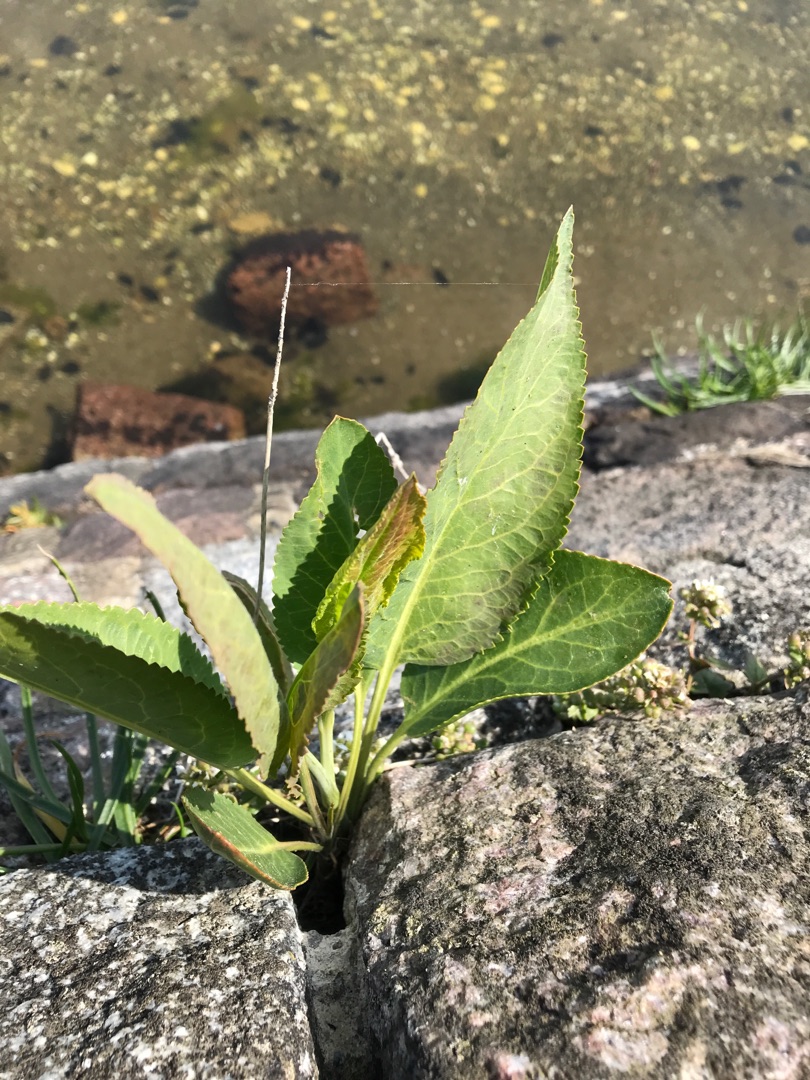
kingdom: Plantae
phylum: Tracheophyta
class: Magnoliopsida
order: Brassicales
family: Brassicaceae
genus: Lepidium
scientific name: Lepidium latifolium
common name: Strand-karse
